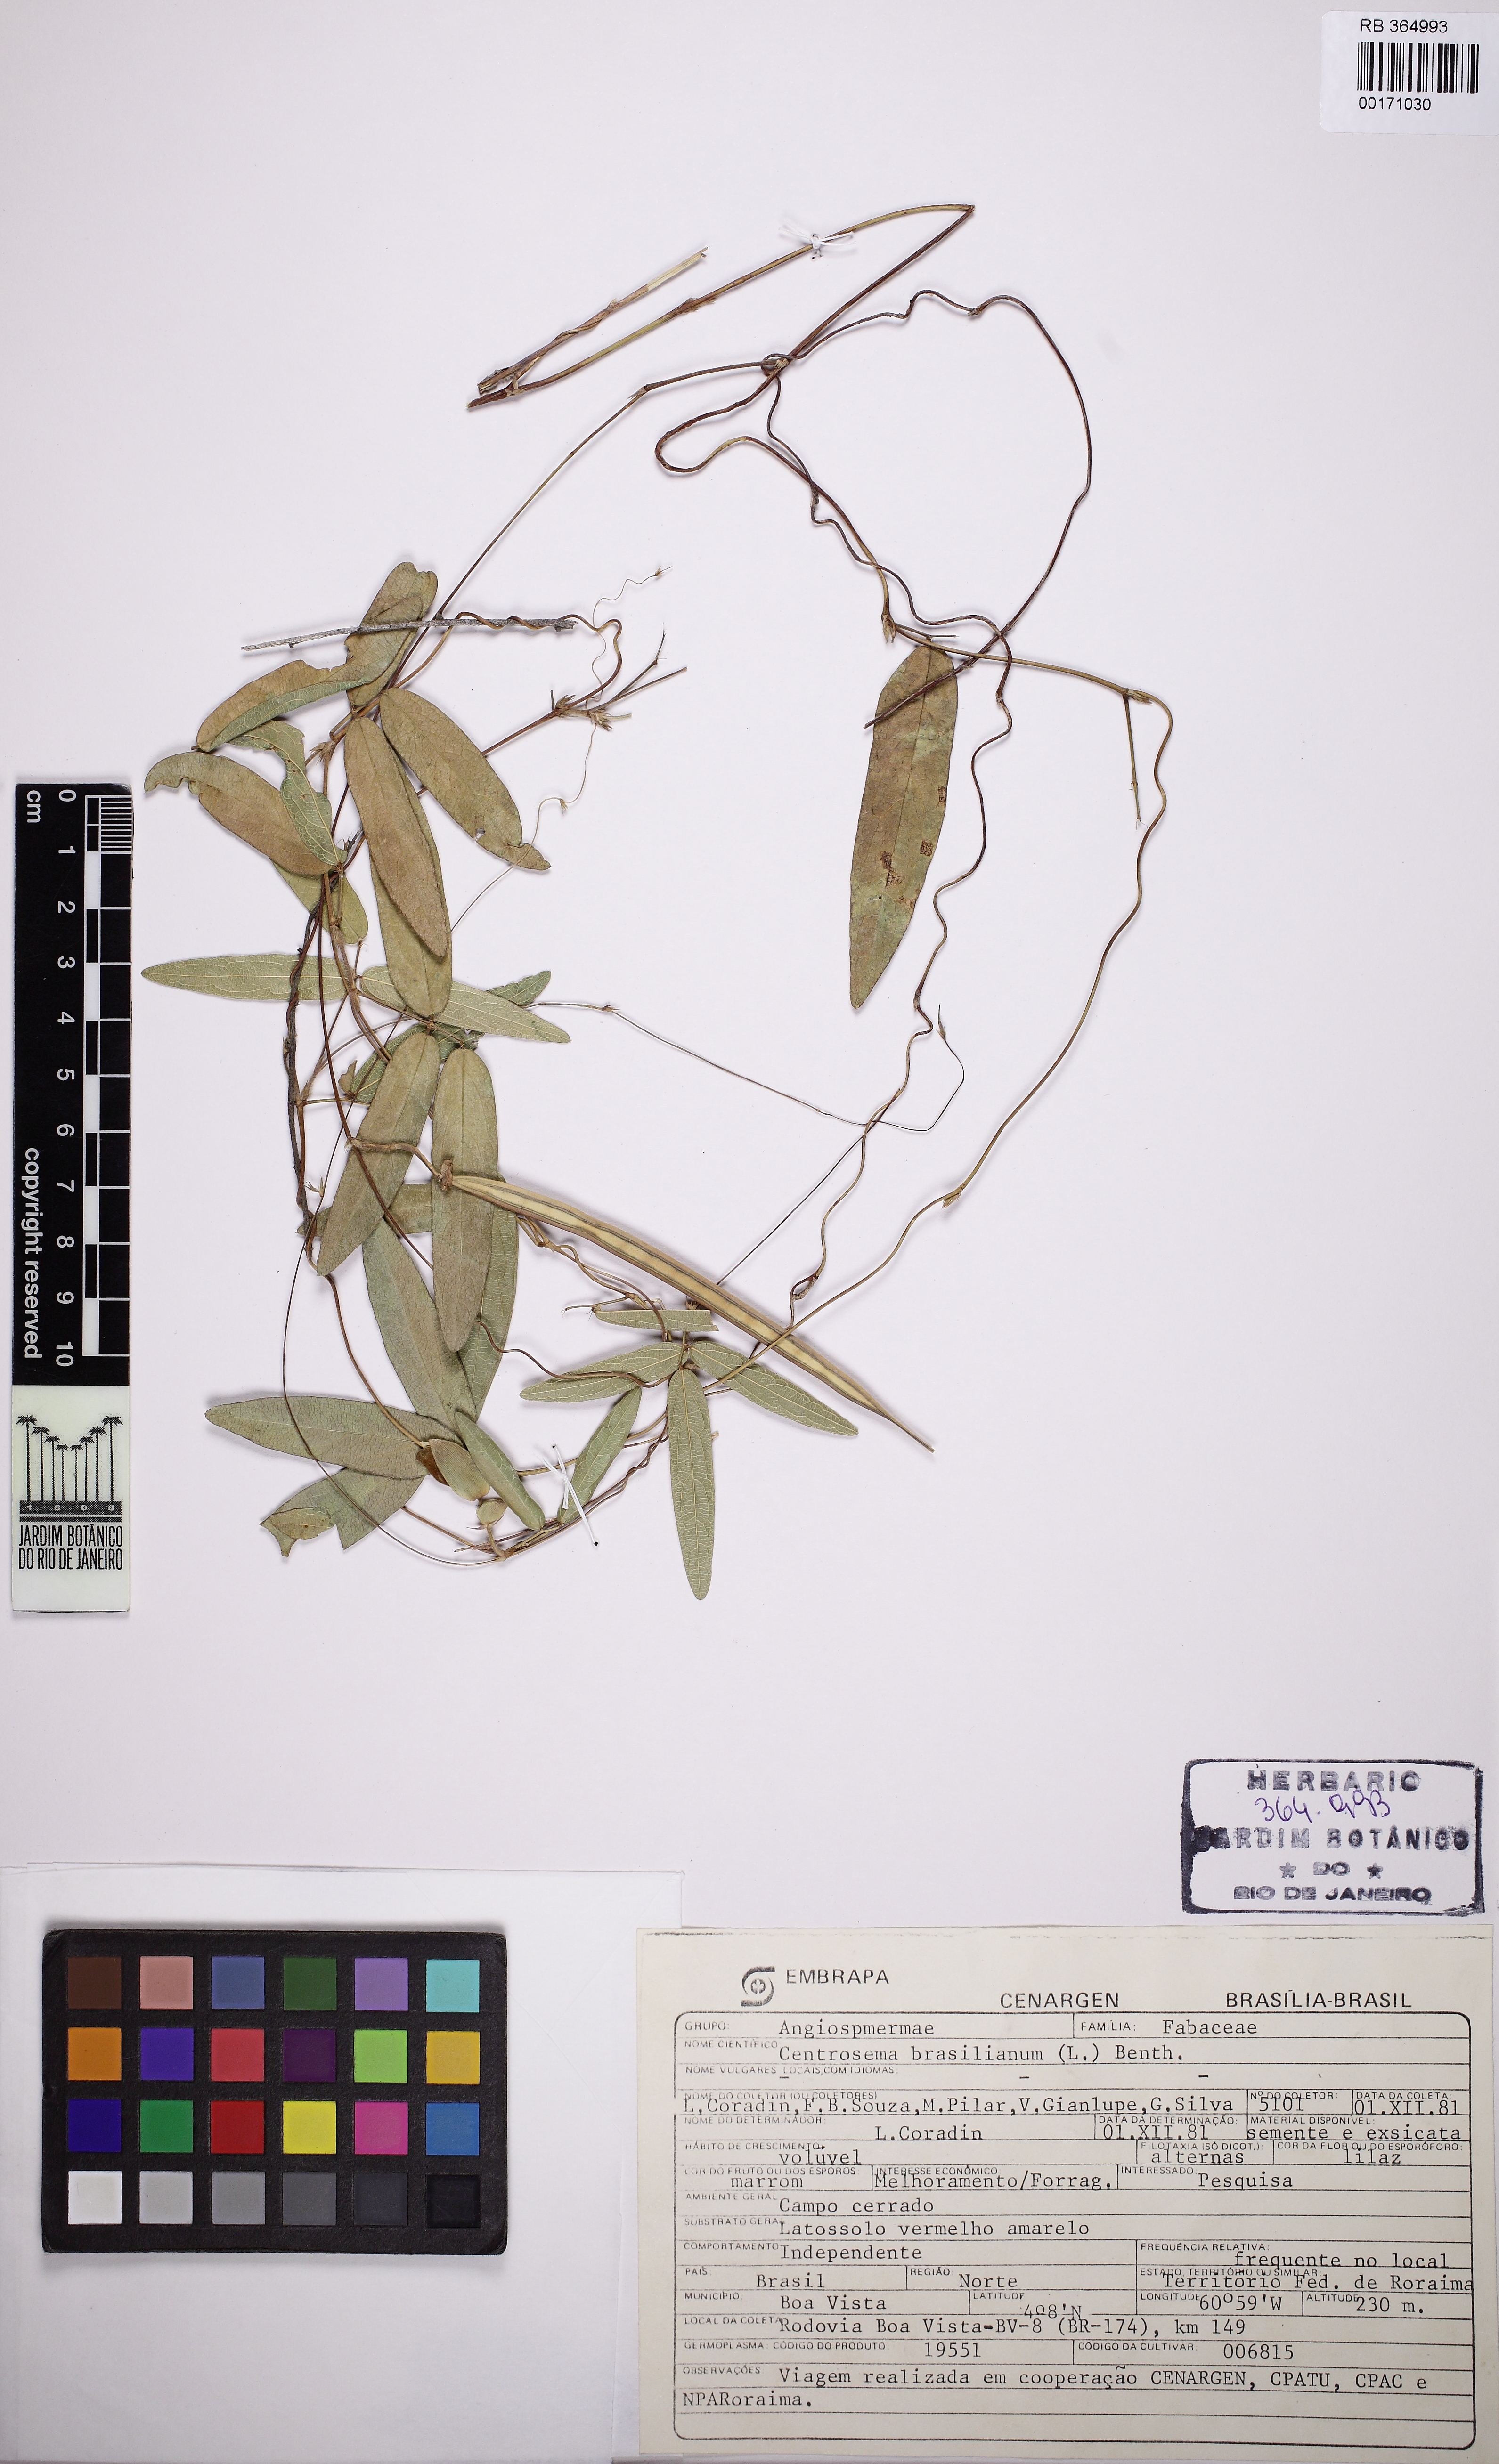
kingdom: Plantae
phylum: Tracheophyta
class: Magnoliopsida
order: Fabales
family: Fabaceae
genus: Centrosema
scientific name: Centrosema brasilianum
